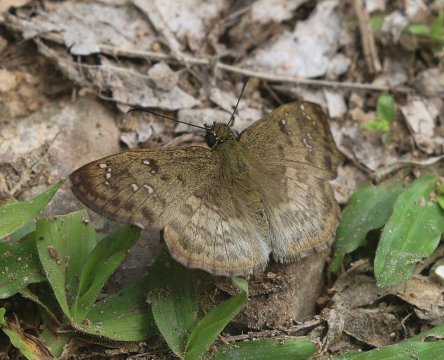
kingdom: Animalia
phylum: Arthropoda
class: Insecta
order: Lepidoptera
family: Hesperiidae
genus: Carrhenes
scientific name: Carrhenes canescens
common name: Hoary Skipper
